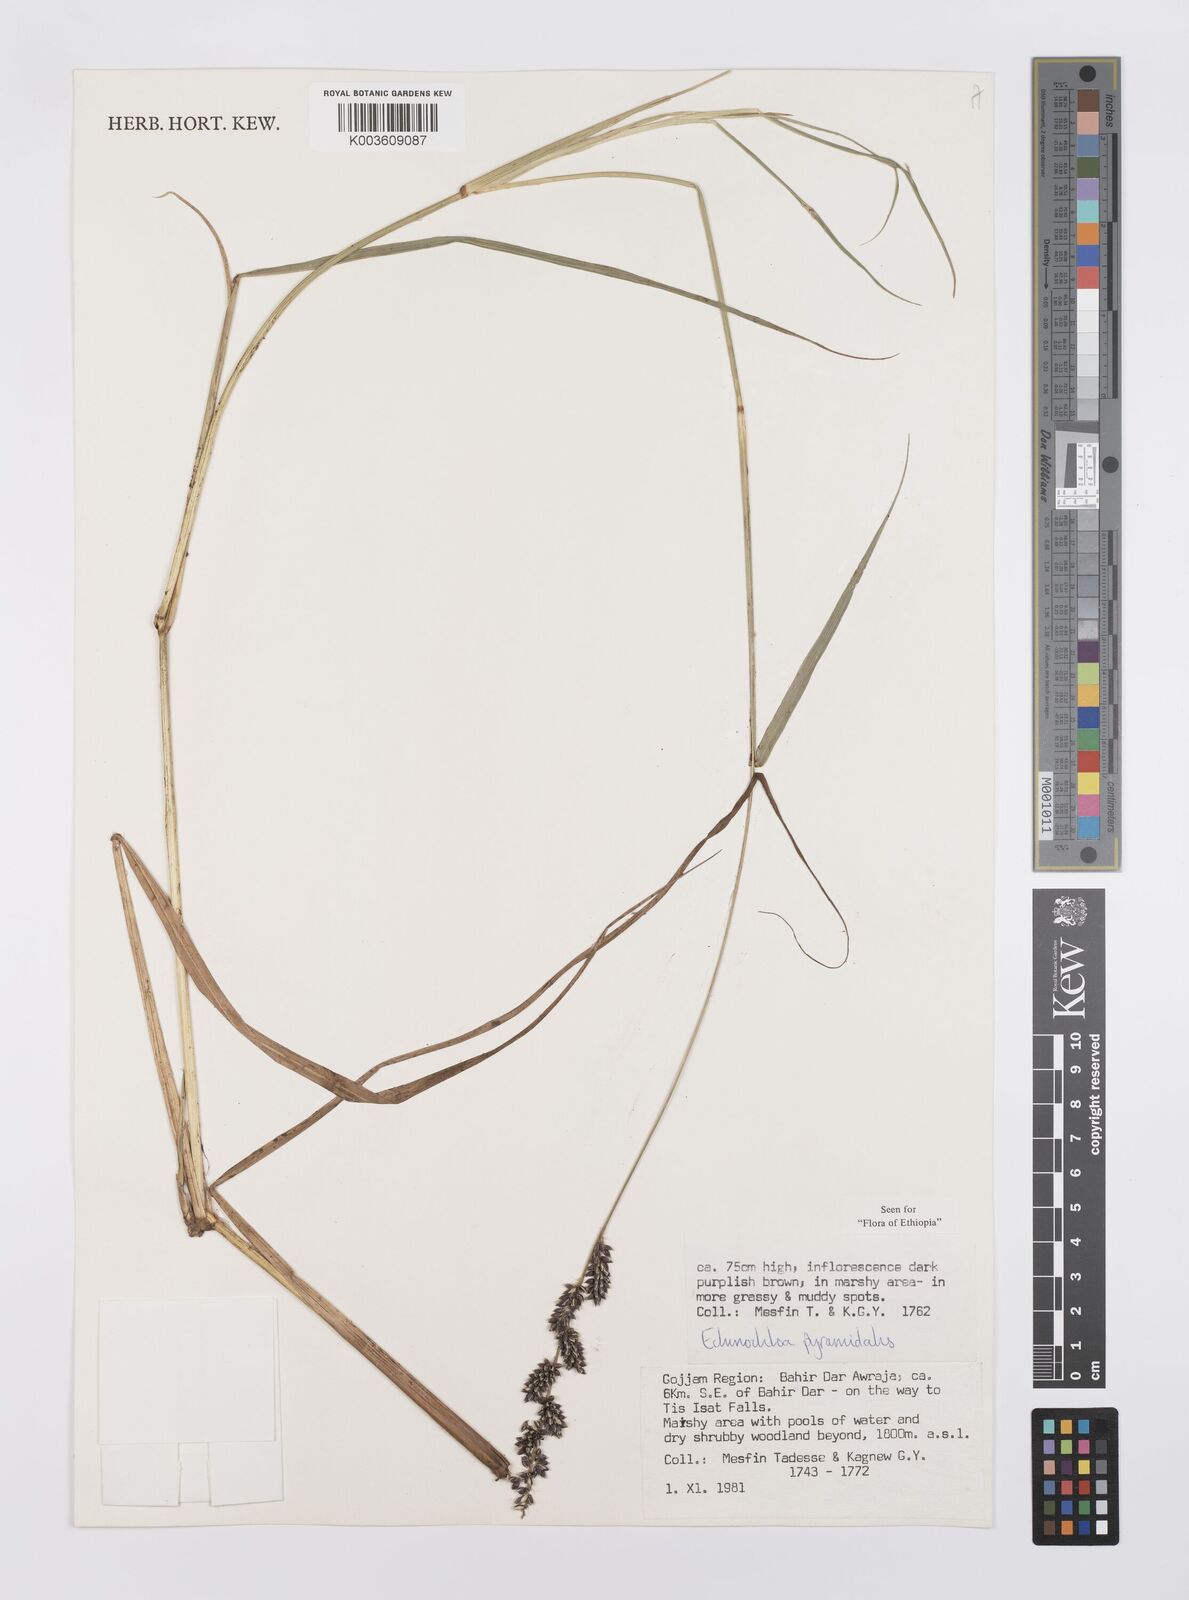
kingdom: Plantae
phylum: Tracheophyta
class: Liliopsida
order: Poales
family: Poaceae
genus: Echinochloa
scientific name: Echinochloa pyramidalis
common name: Antelope grass
